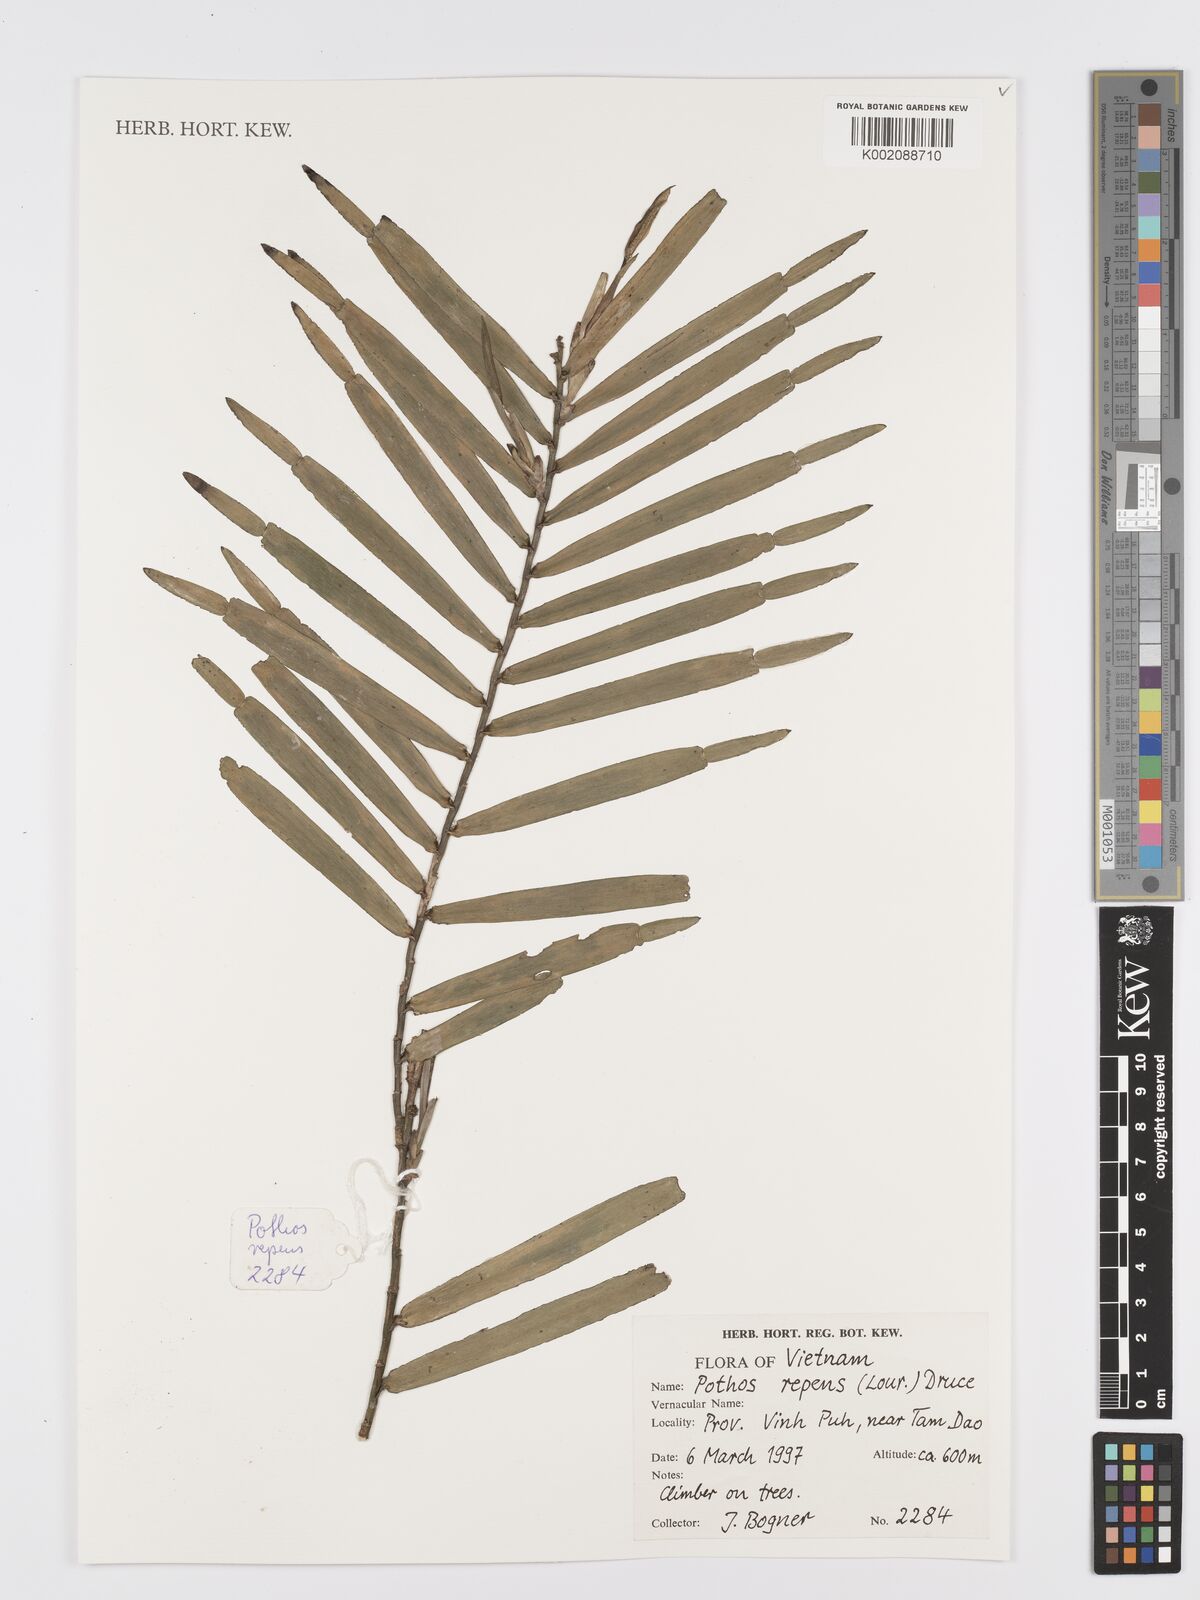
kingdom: Plantae
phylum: Tracheophyta
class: Liliopsida
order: Alismatales
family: Araceae
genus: Pothos
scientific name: Pothos repens
